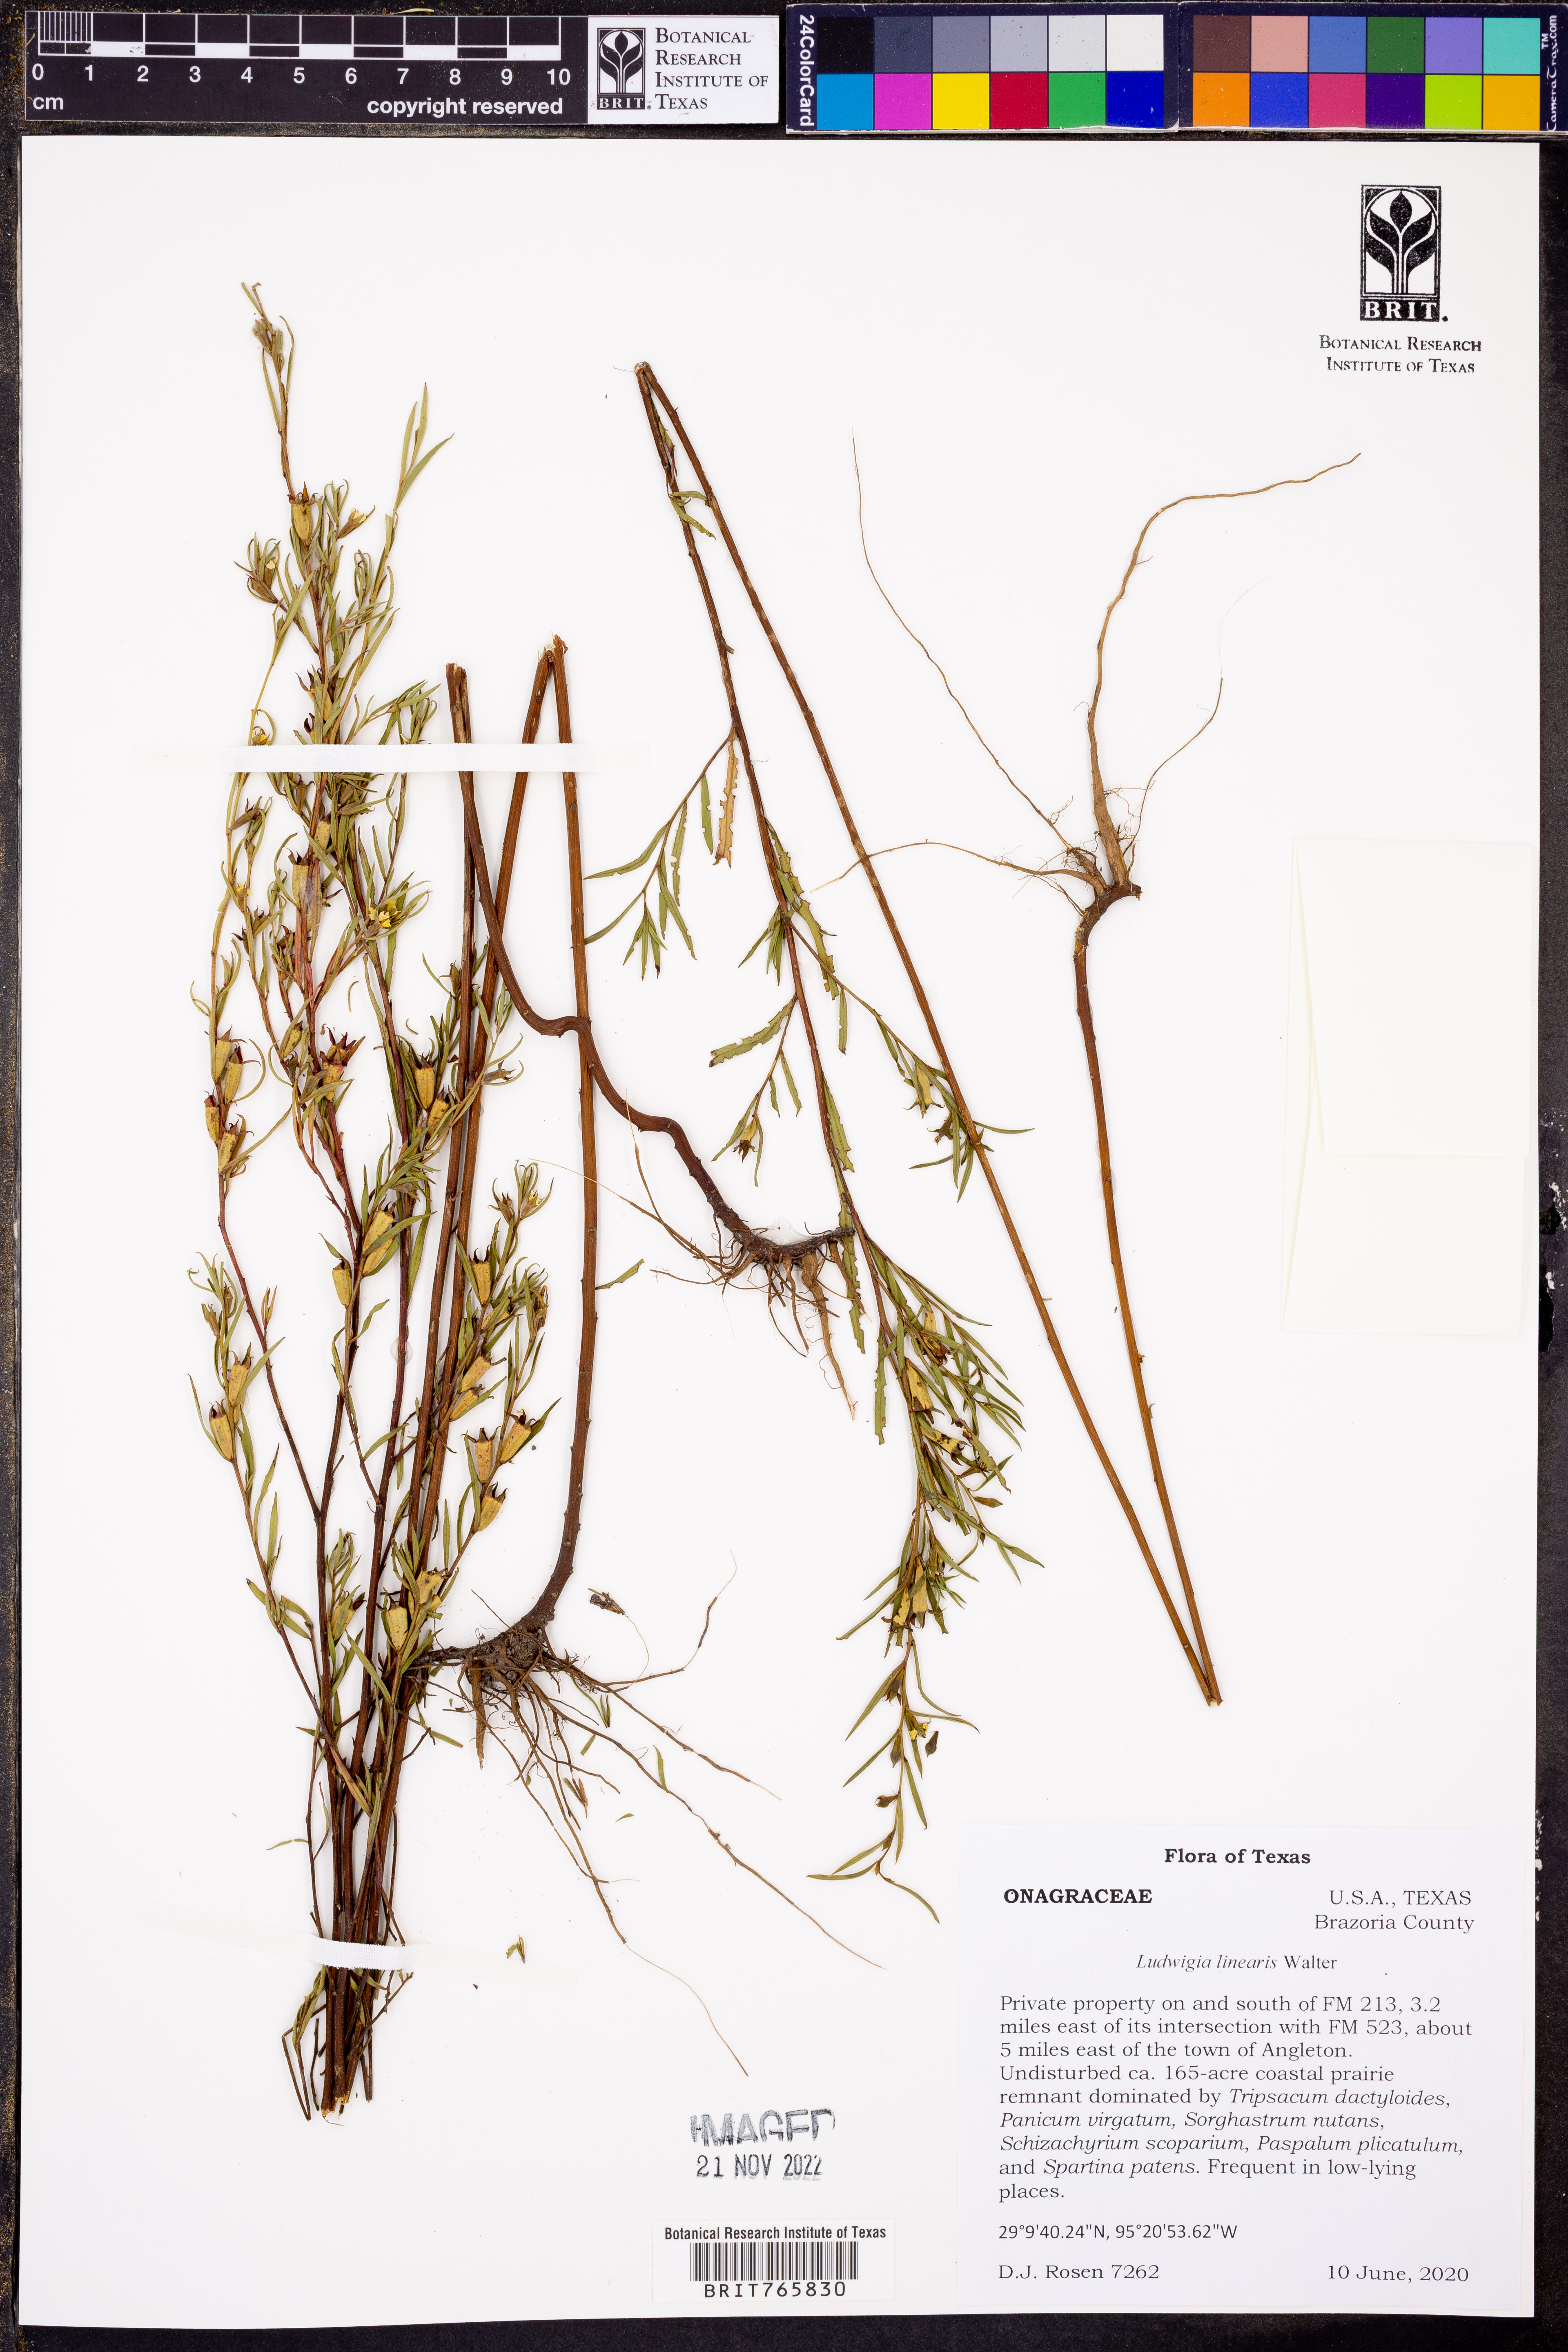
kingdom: Plantae
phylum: Tracheophyta
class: Magnoliopsida
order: Myrtales
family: Onagraceae
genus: Ludwigia
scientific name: Ludwigia linearis
